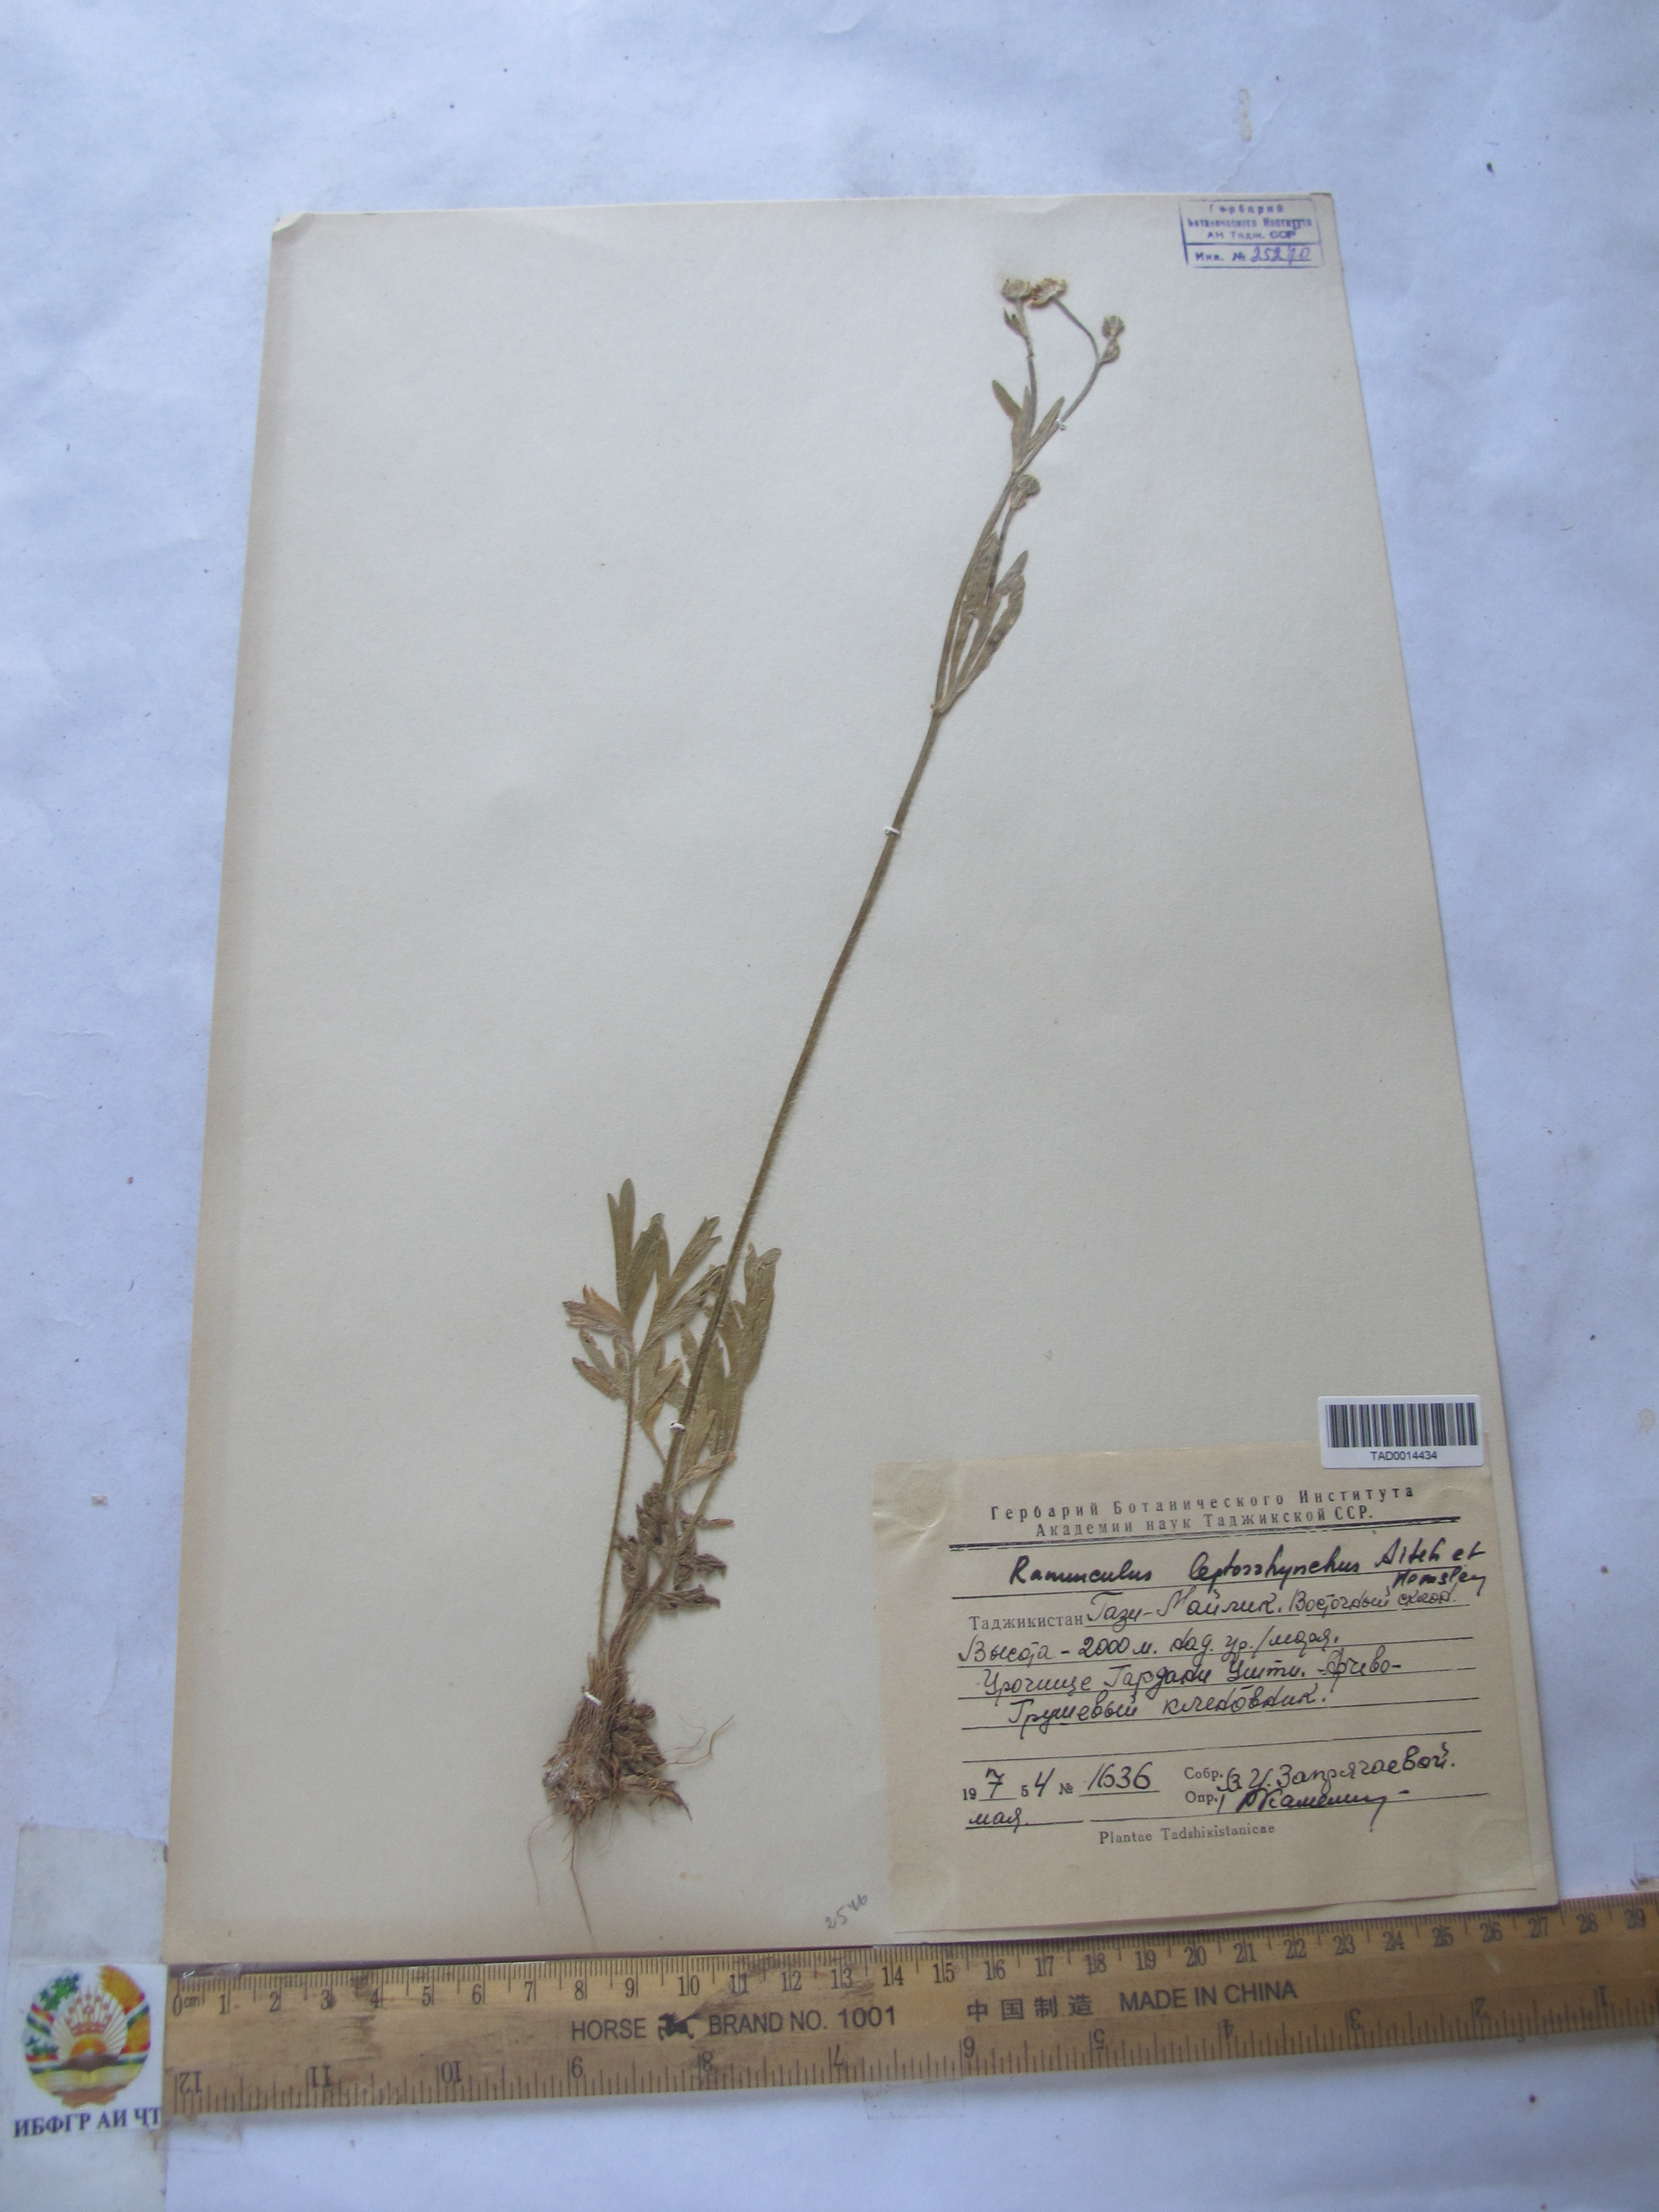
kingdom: Plantae
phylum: Tracheophyta
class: Magnoliopsida
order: Ranunculales
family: Ranunculaceae
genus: Ranunculus
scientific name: Ranunculus leptorrhynchus
